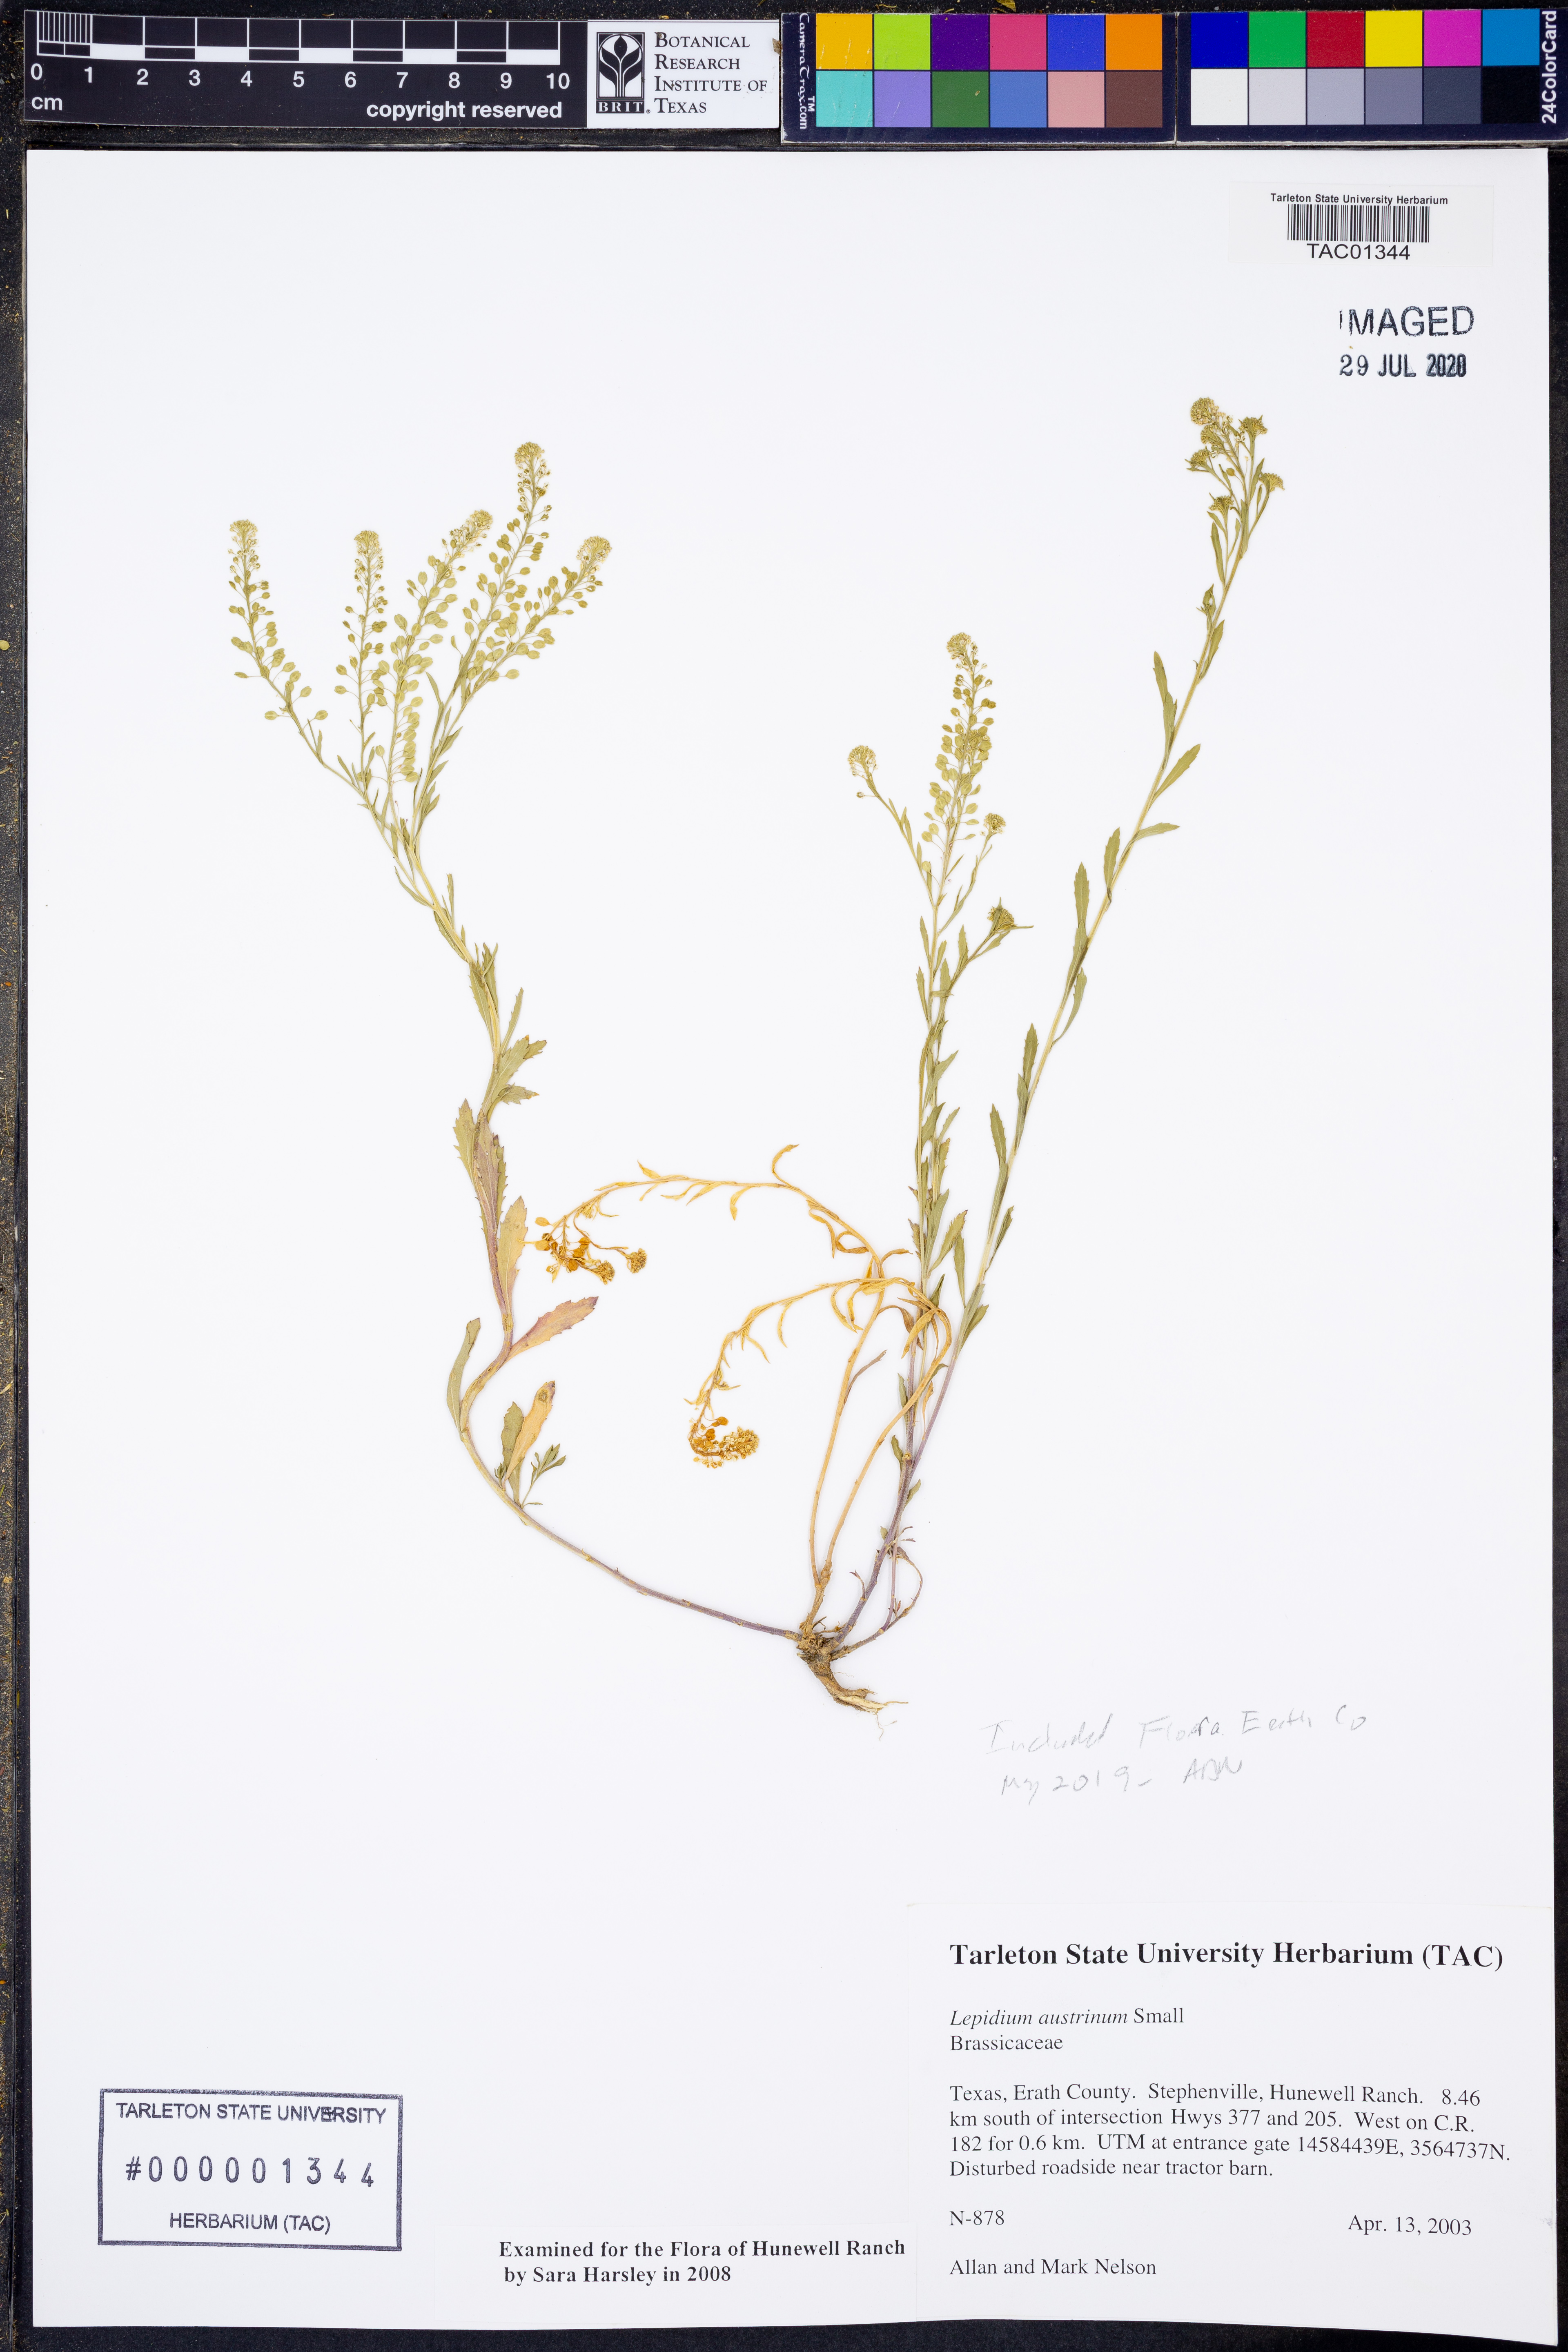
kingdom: Plantae
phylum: Tracheophyta
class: Magnoliopsida
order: Brassicales
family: Brassicaceae
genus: Lepidium
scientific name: Lepidium austrinum
